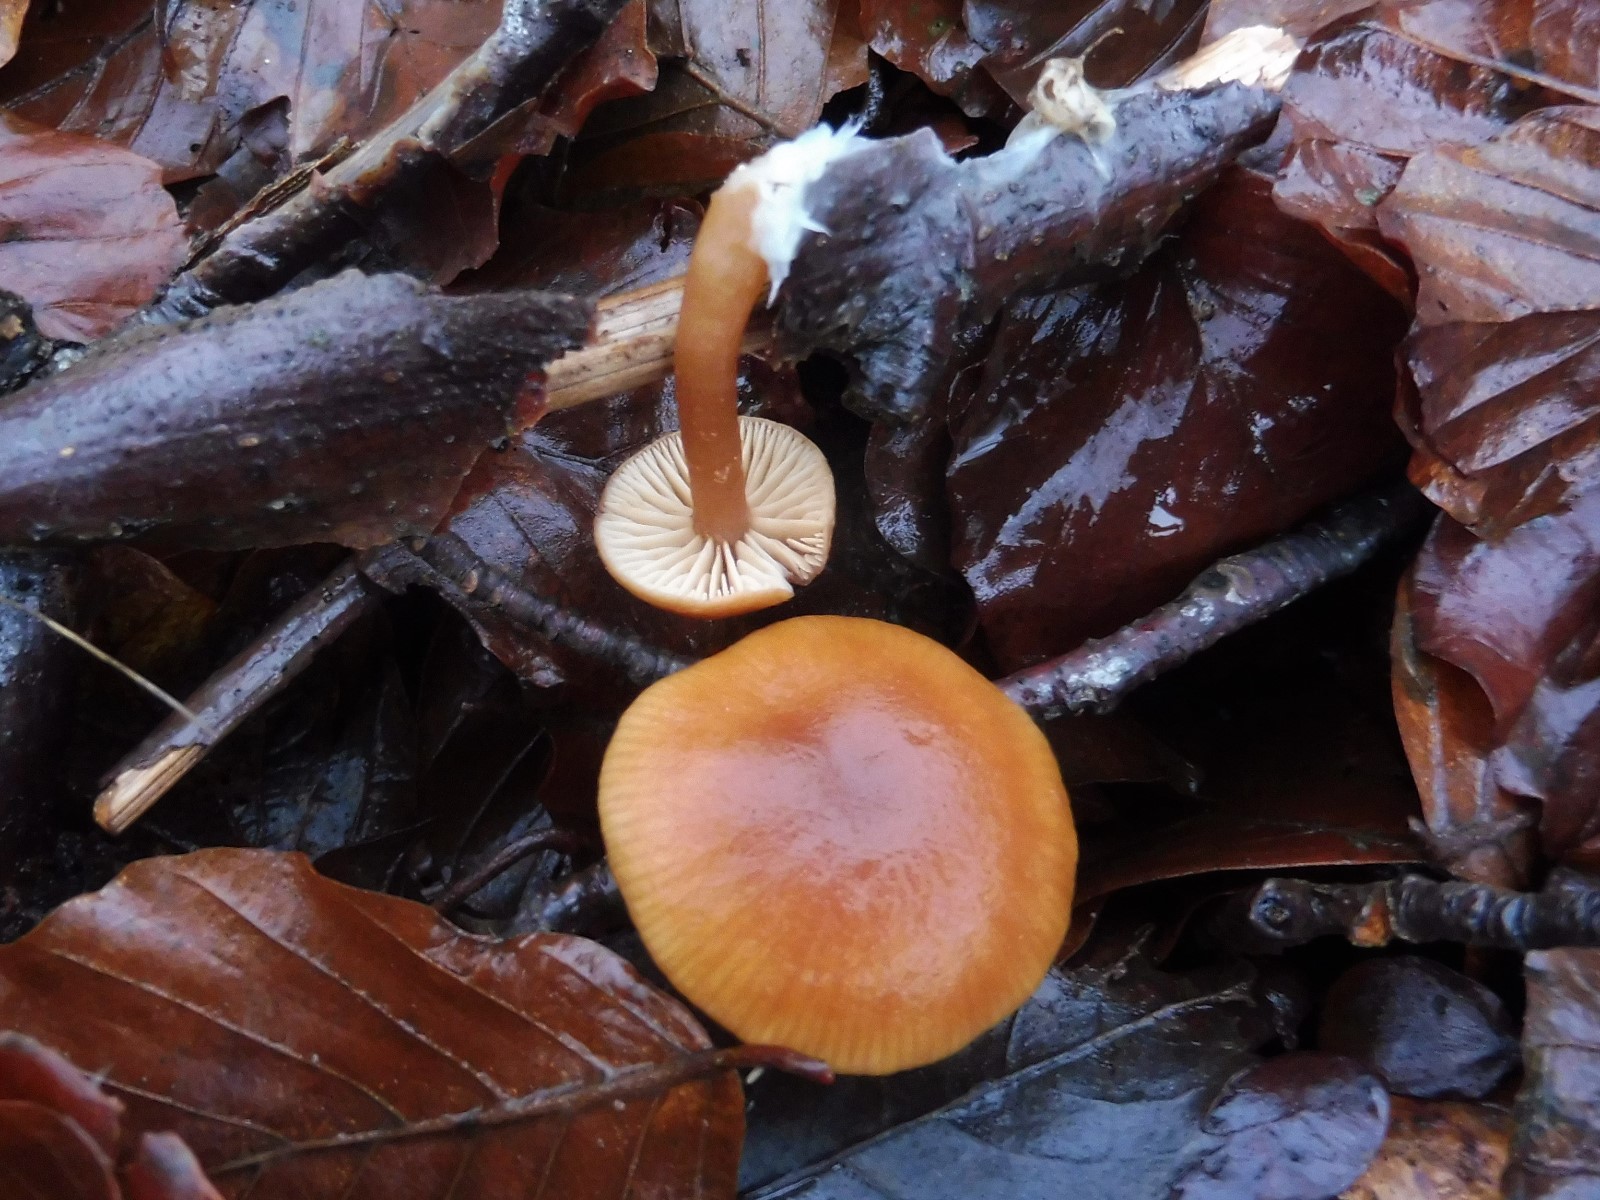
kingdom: Fungi
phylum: Basidiomycota
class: Agaricomycetes
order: Agaricales
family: Tubariaceae
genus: Tubaria
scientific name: Tubaria furfuracea
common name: kliddet fnughat
